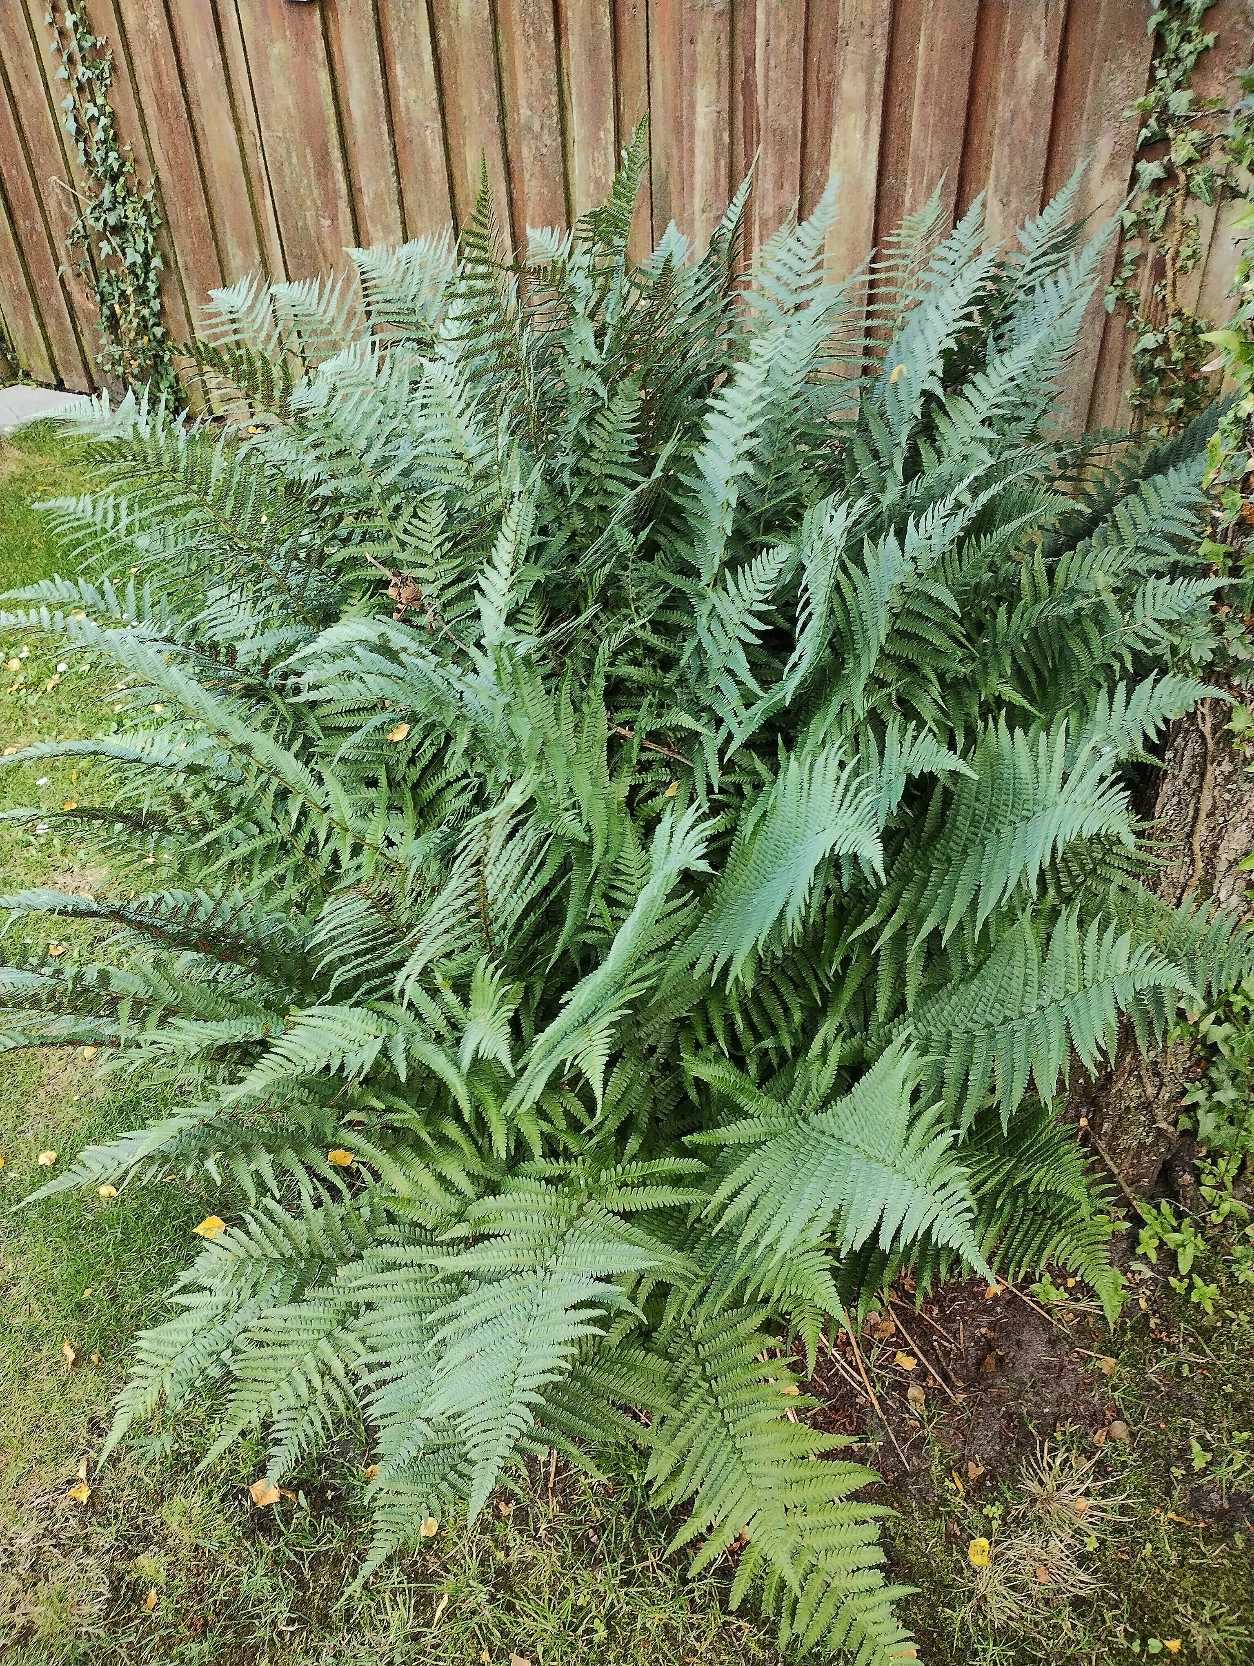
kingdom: Plantae
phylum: Tracheophyta
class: Polypodiopsida
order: Polypodiales
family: Dryopteridaceae
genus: Dryopteris
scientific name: Dryopteris filix-mas
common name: Almindelig mangeløv
